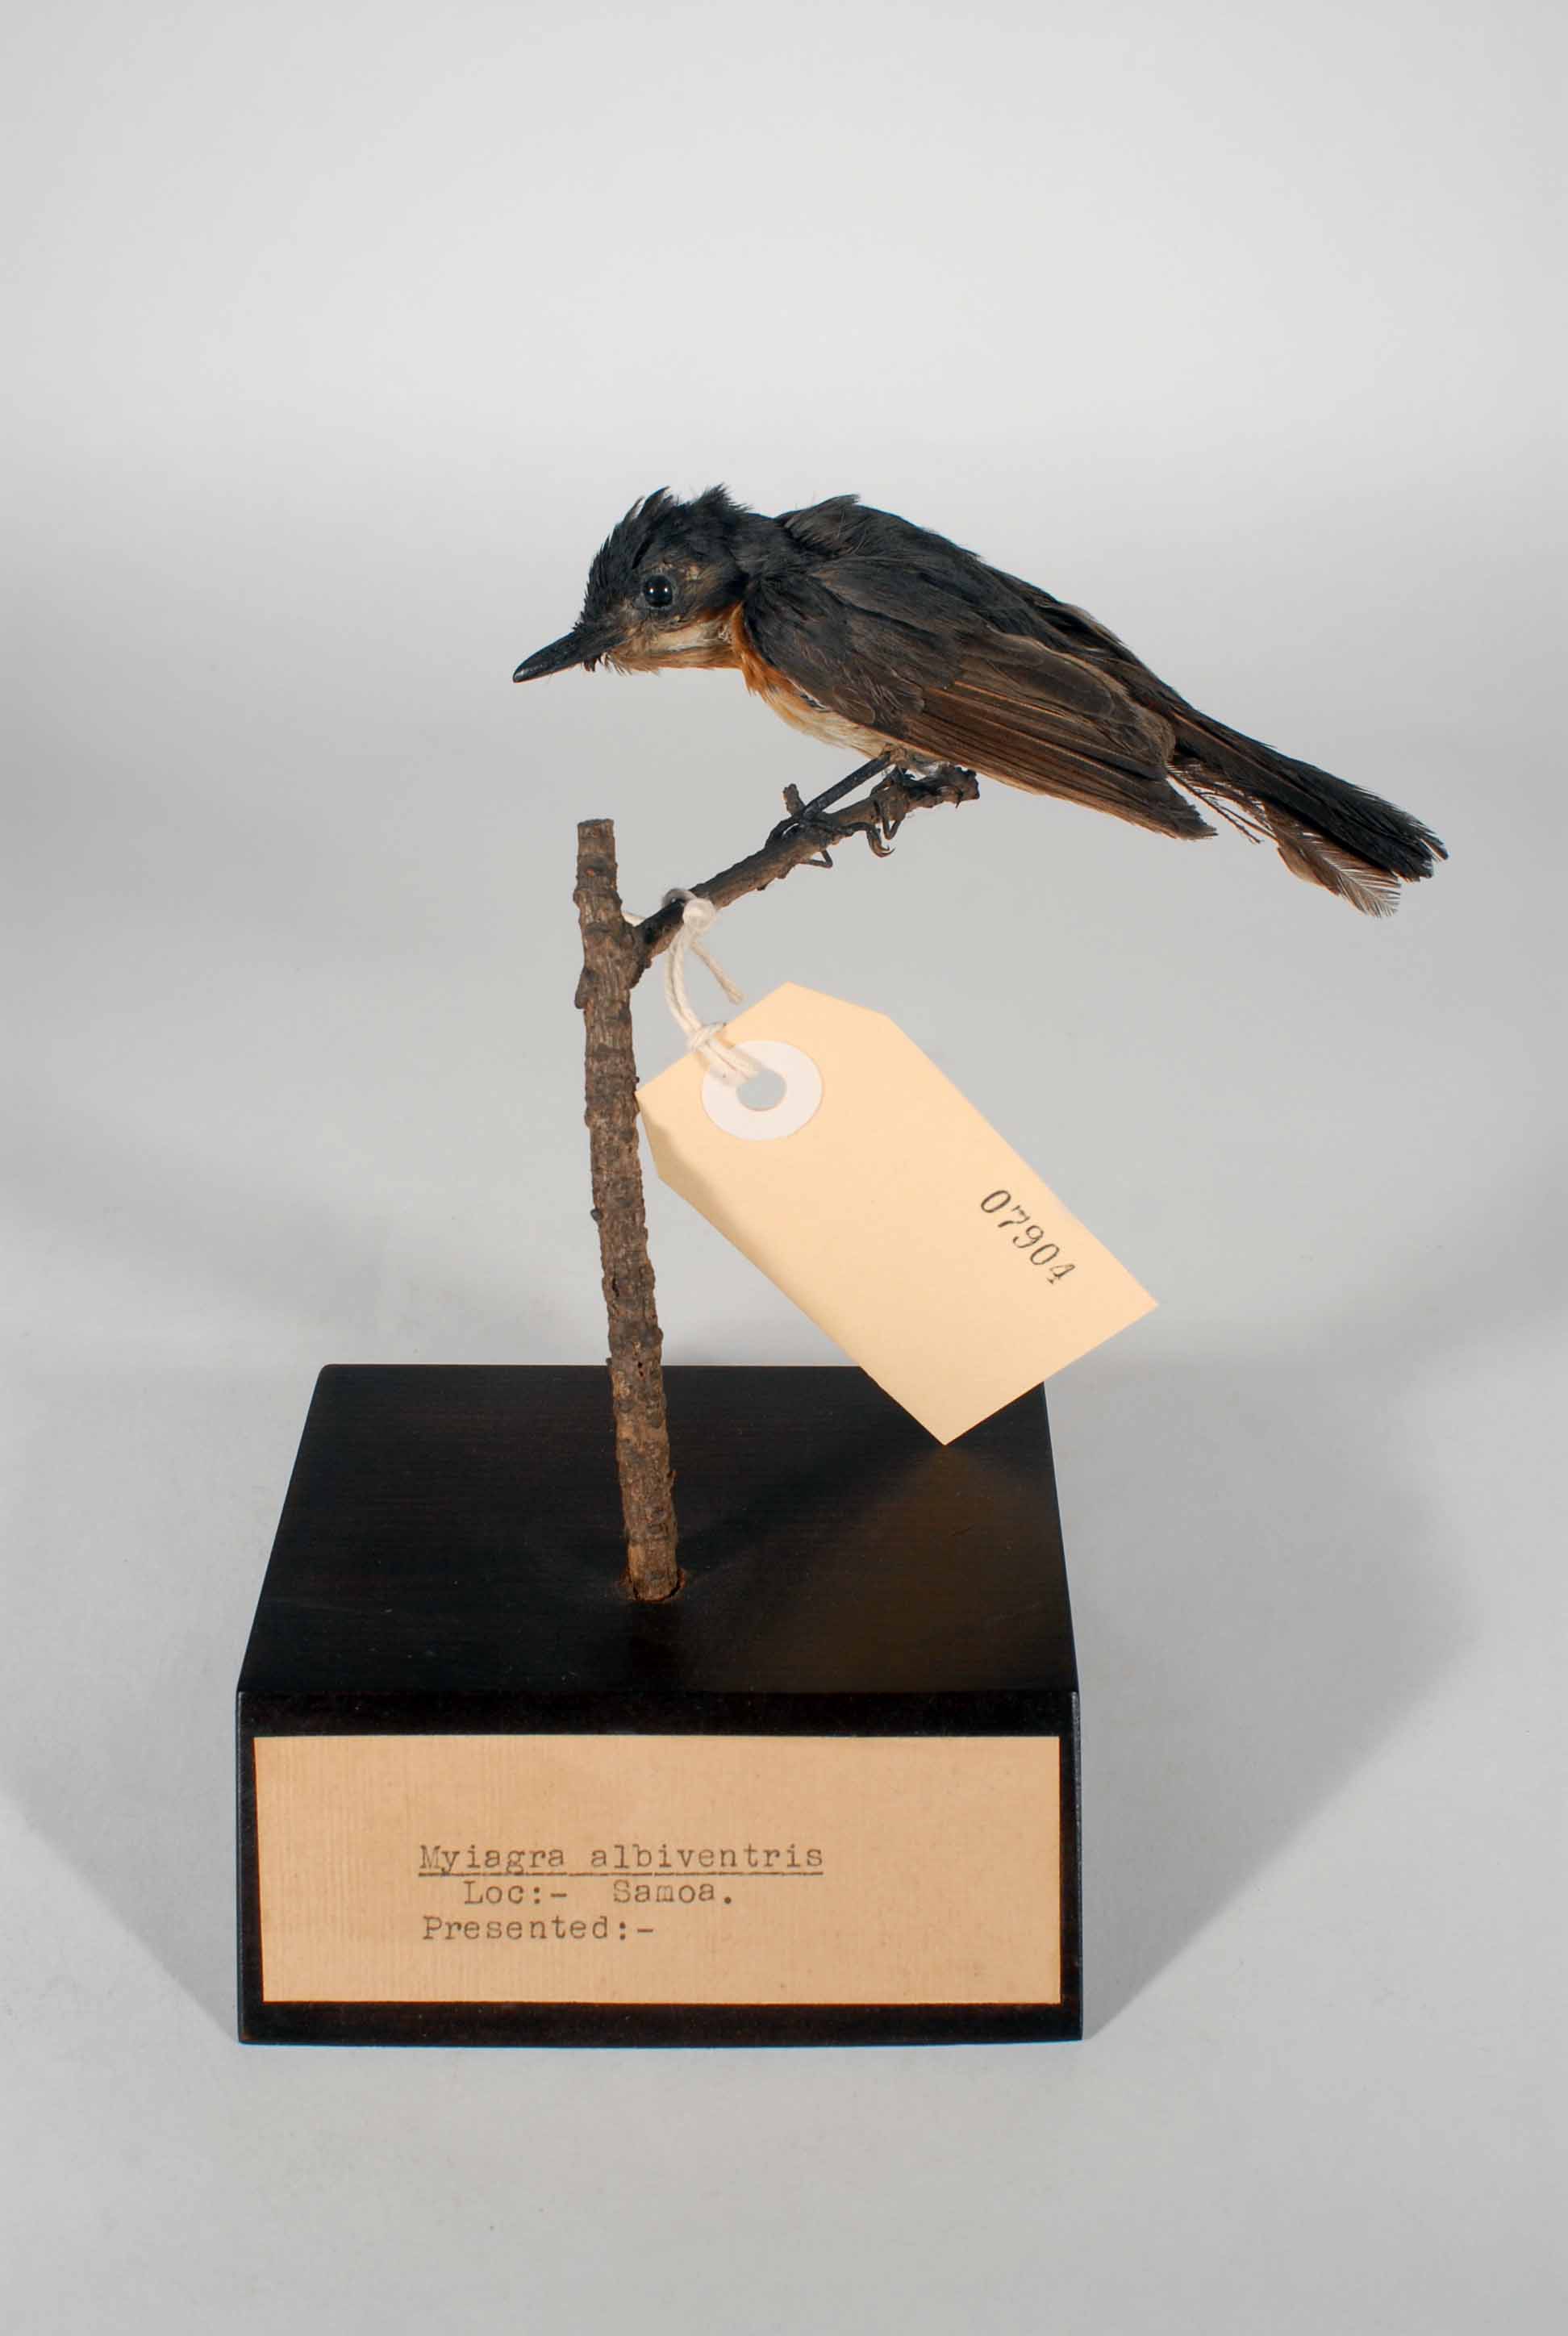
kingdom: Animalia
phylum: Chordata
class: Aves
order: Passeriformes
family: Monarchidae
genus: Myiagra
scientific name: Myiagra albiventris
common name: Samoan flycatcher
